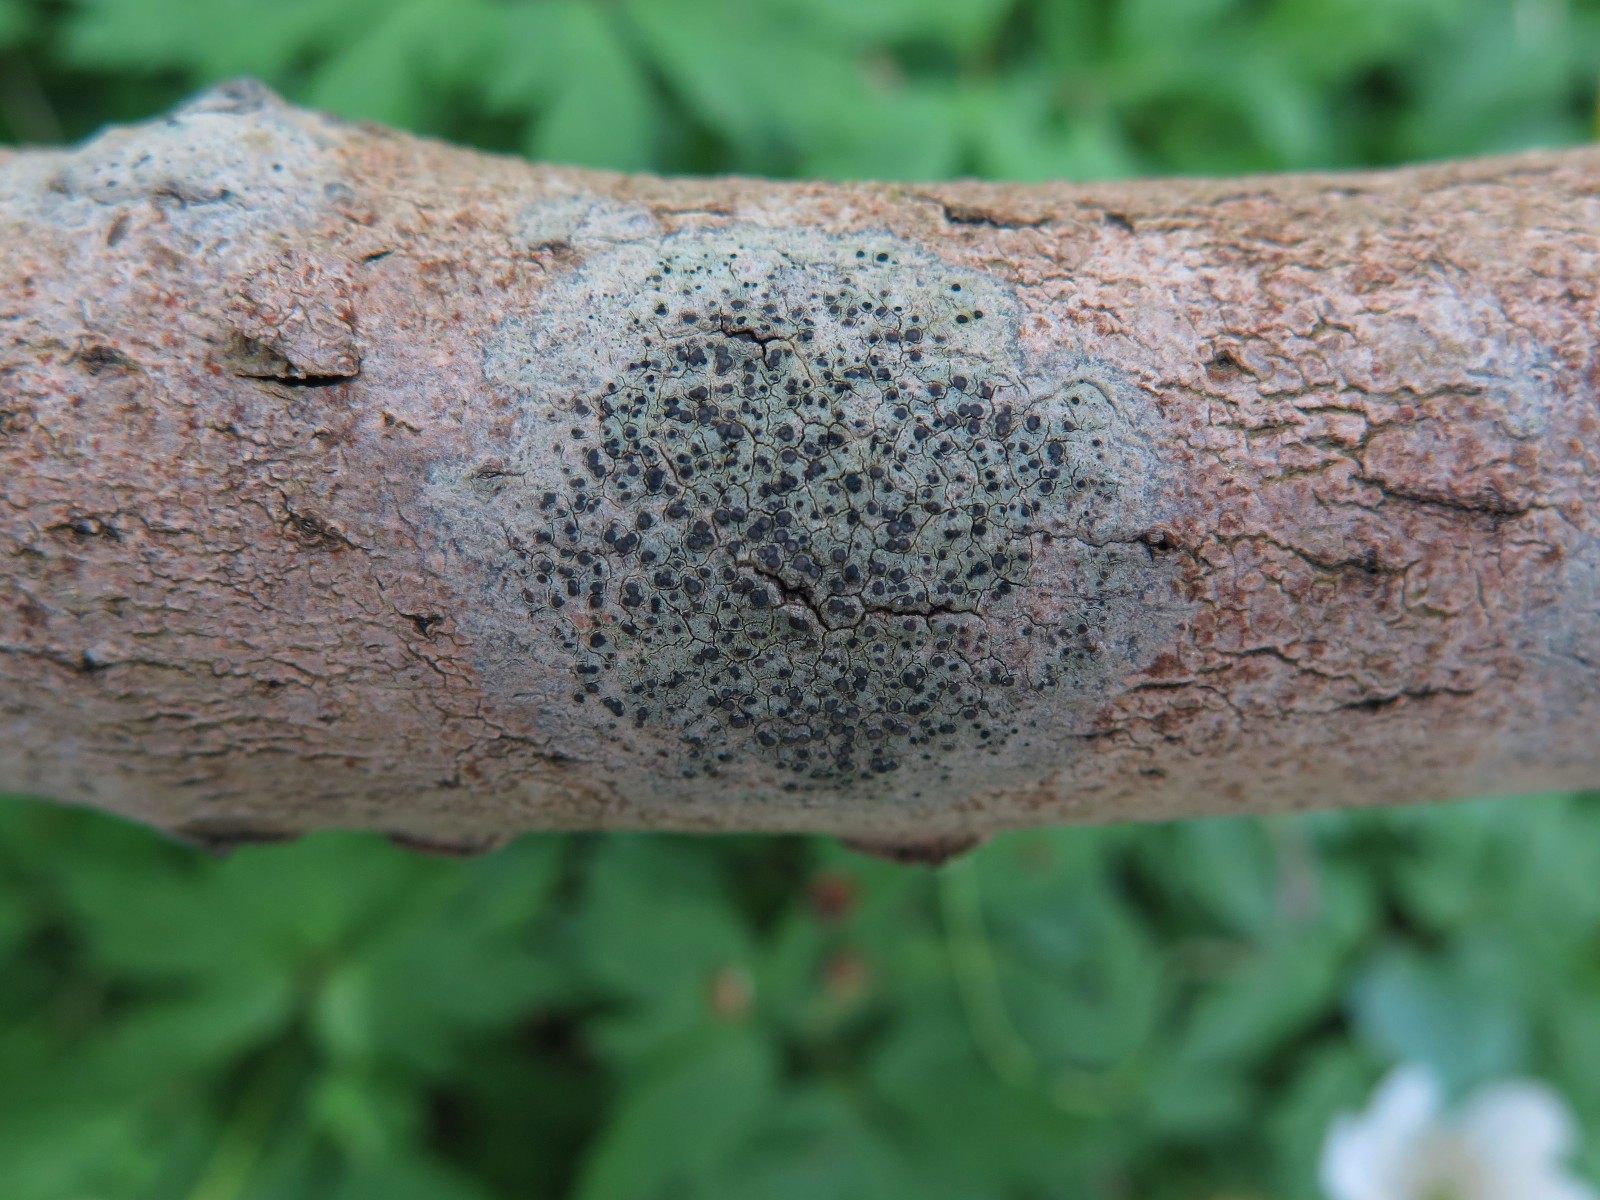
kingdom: Fungi
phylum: Ascomycota
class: Lecanoromycetes
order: Lecanorales
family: Lecanoraceae
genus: Lecidella
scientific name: Lecidella elaeochroma
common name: grågrøn skivelav
